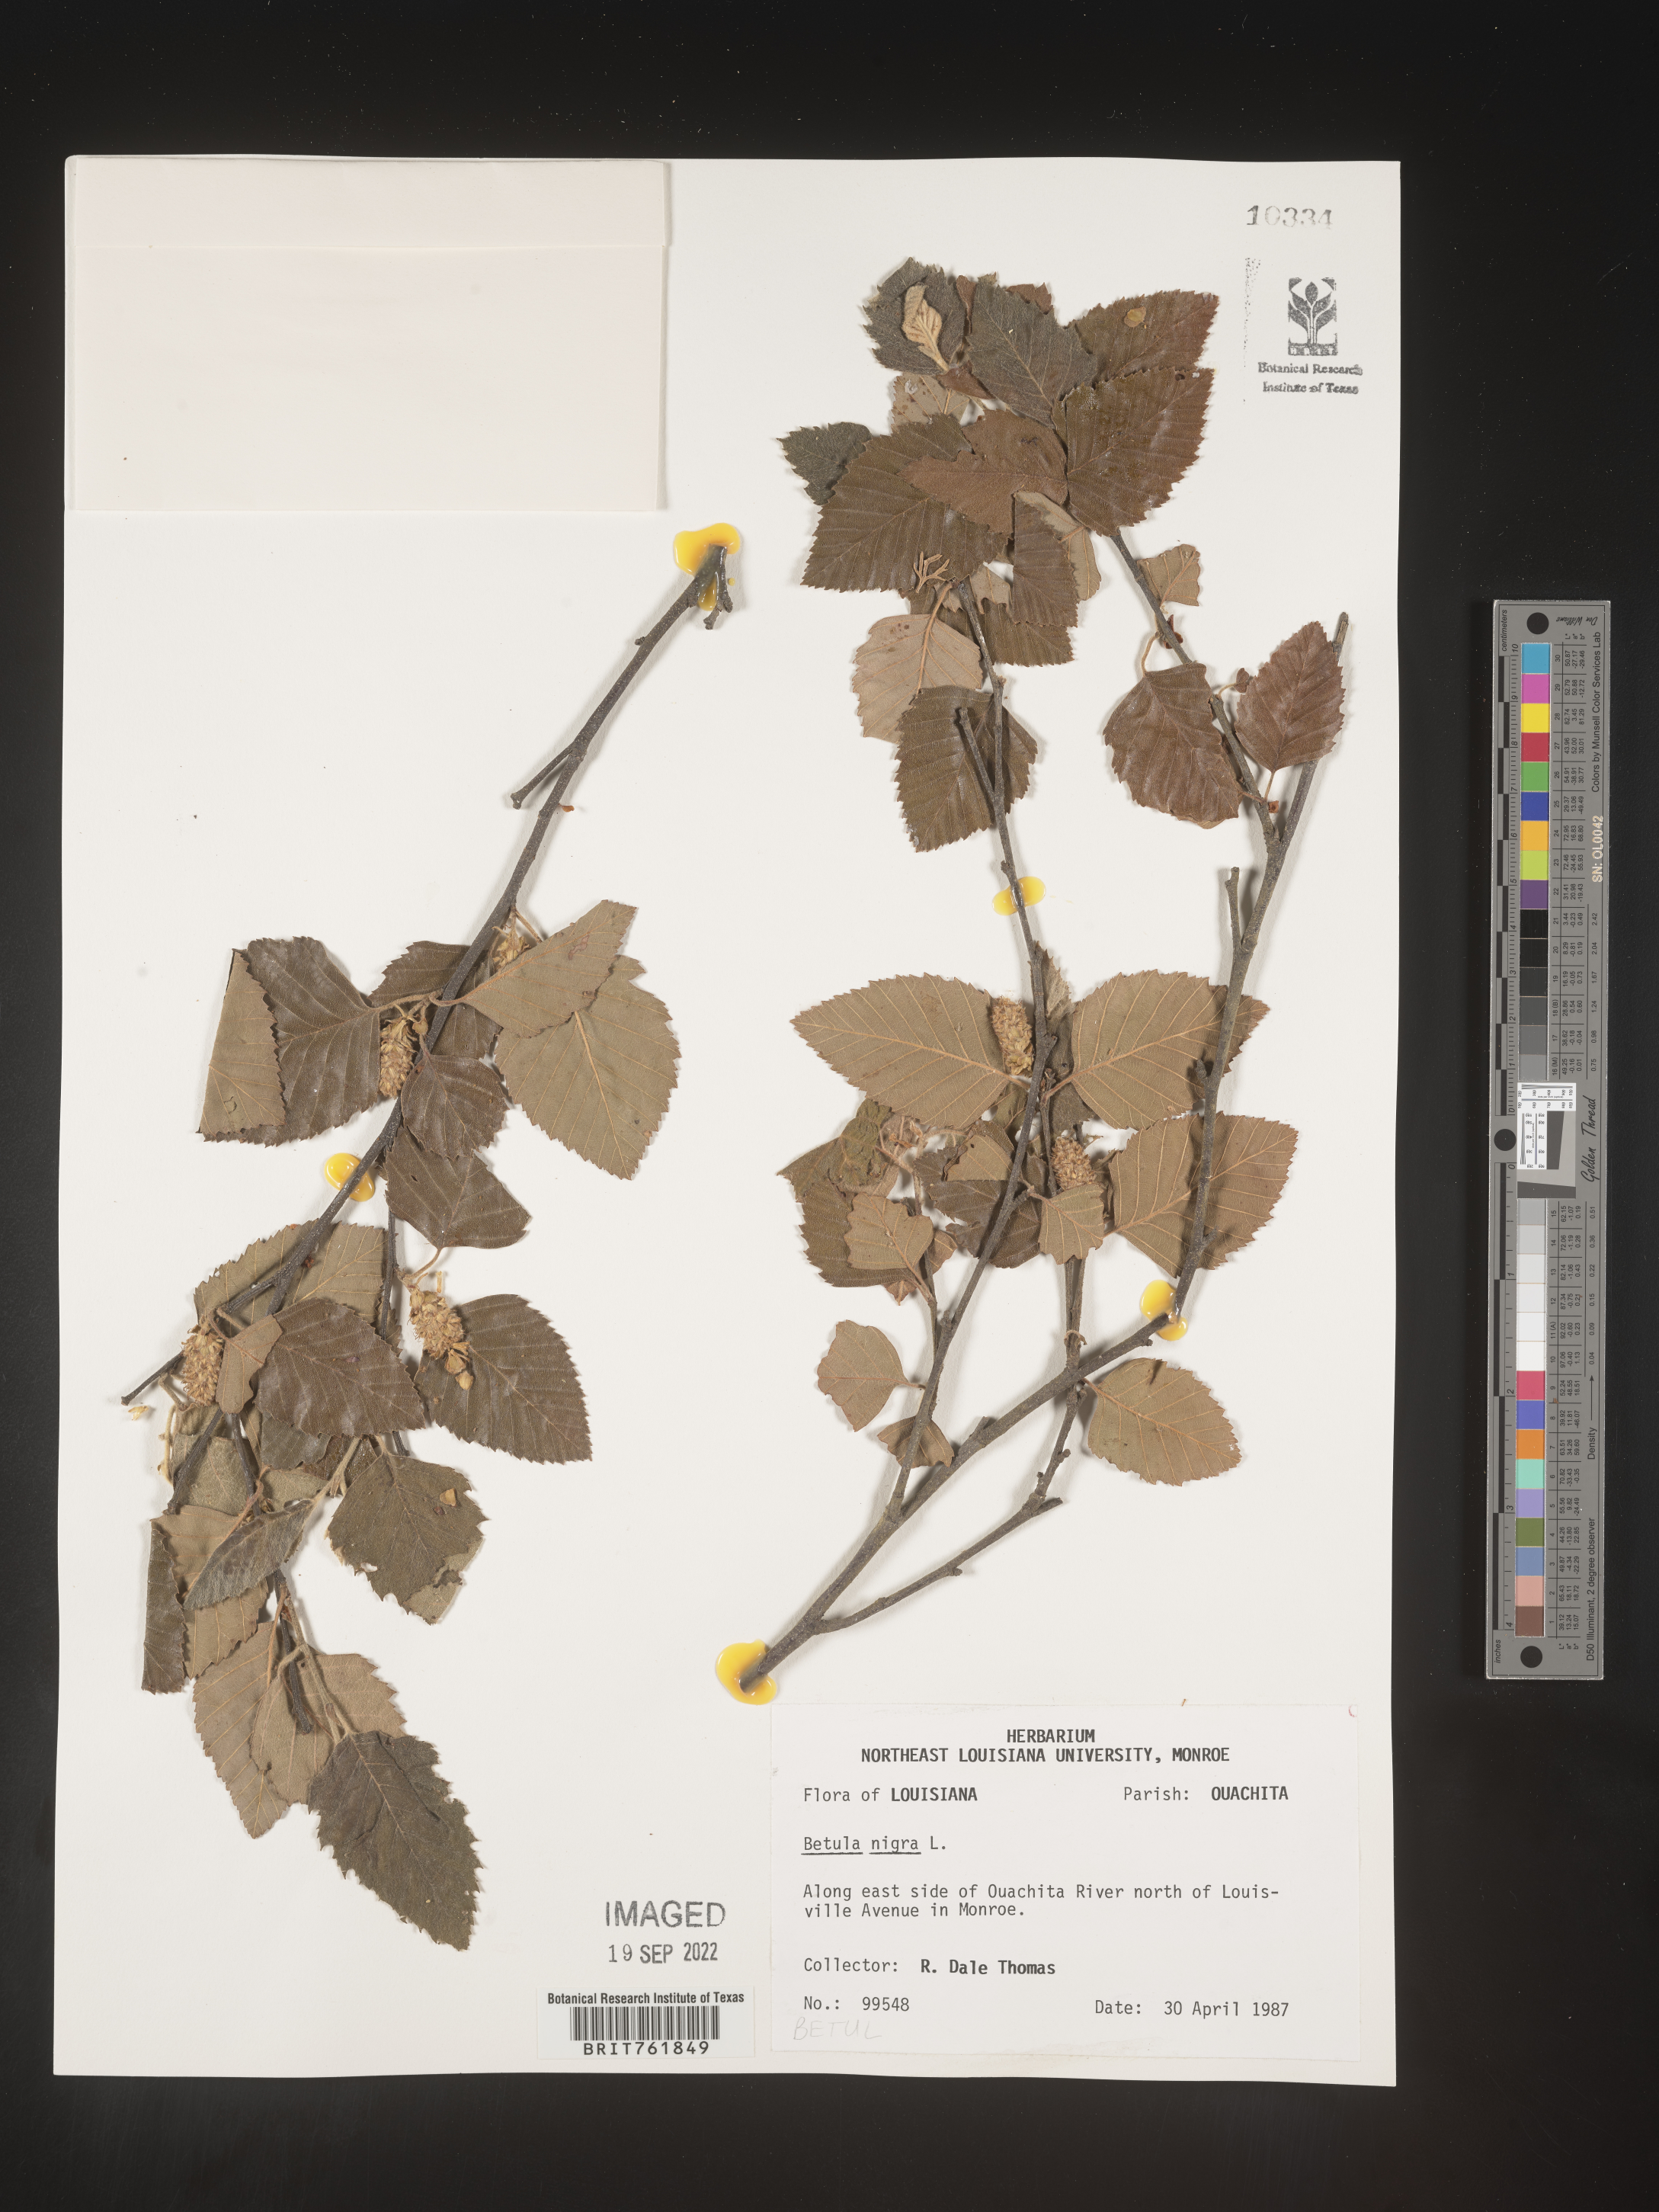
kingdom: Plantae
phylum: Tracheophyta
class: Magnoliopsida
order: Fagales
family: Betulaceae
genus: Betula
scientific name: Betula nigra
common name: Black birch
